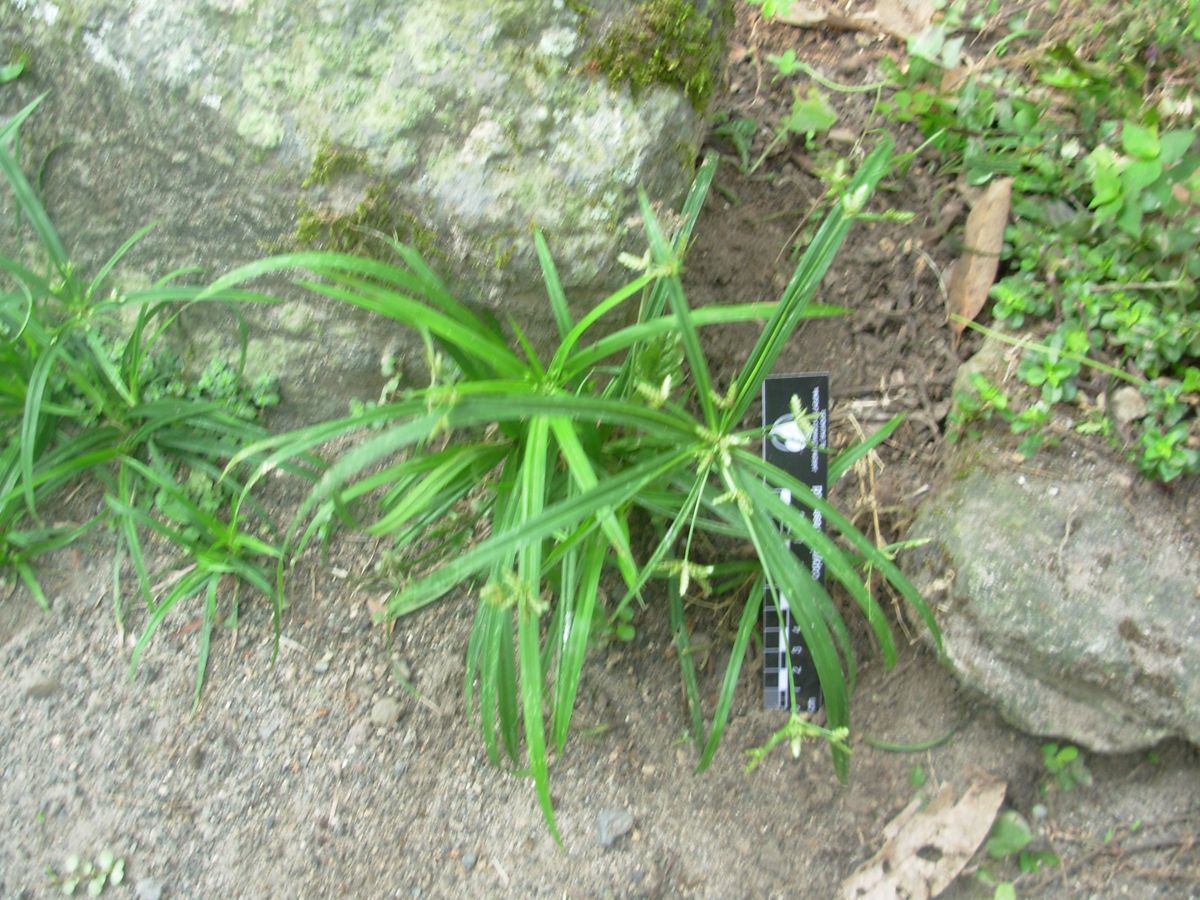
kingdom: Plantae
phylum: Tracheophyta
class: Liliopsida
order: Poales
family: Cyperaceae
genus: Cyperus
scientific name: Cyperus laxus
